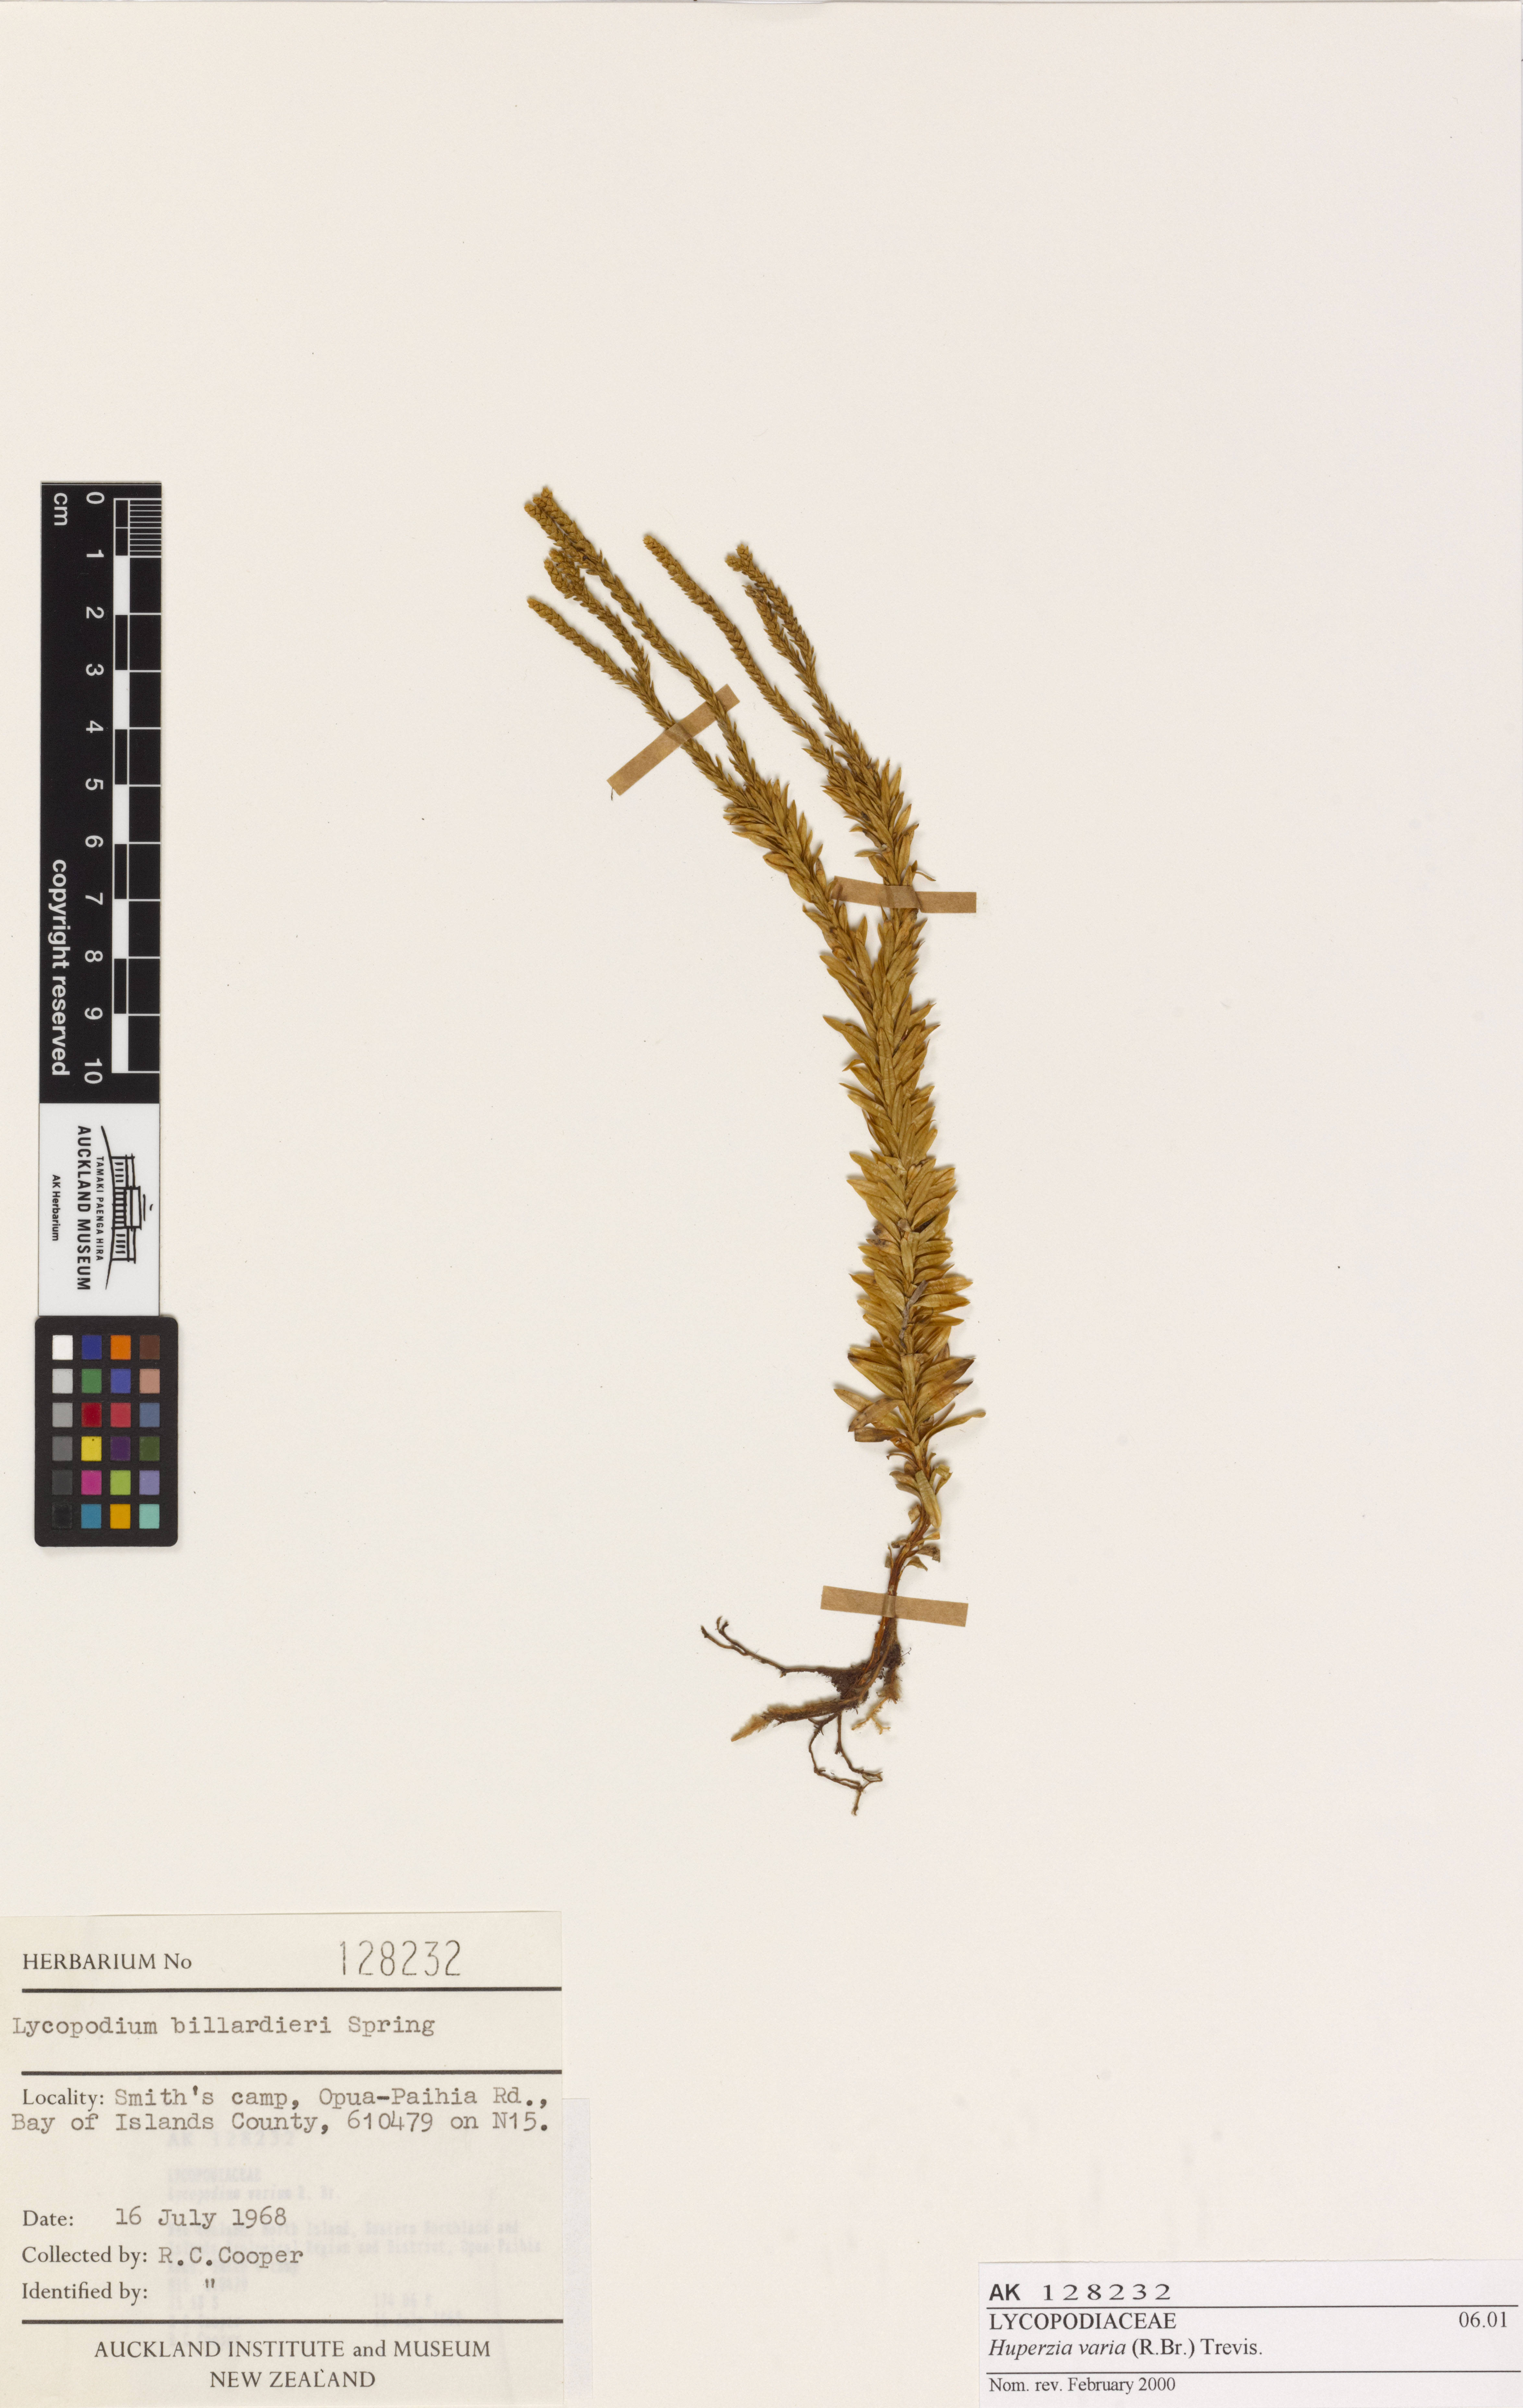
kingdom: Plantae
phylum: Tracheophyta
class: Lycopodiopsida
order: Lycopodiales
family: Lycopodiaceae
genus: Phlegmariurus
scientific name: Phlegmariurus billardierei
